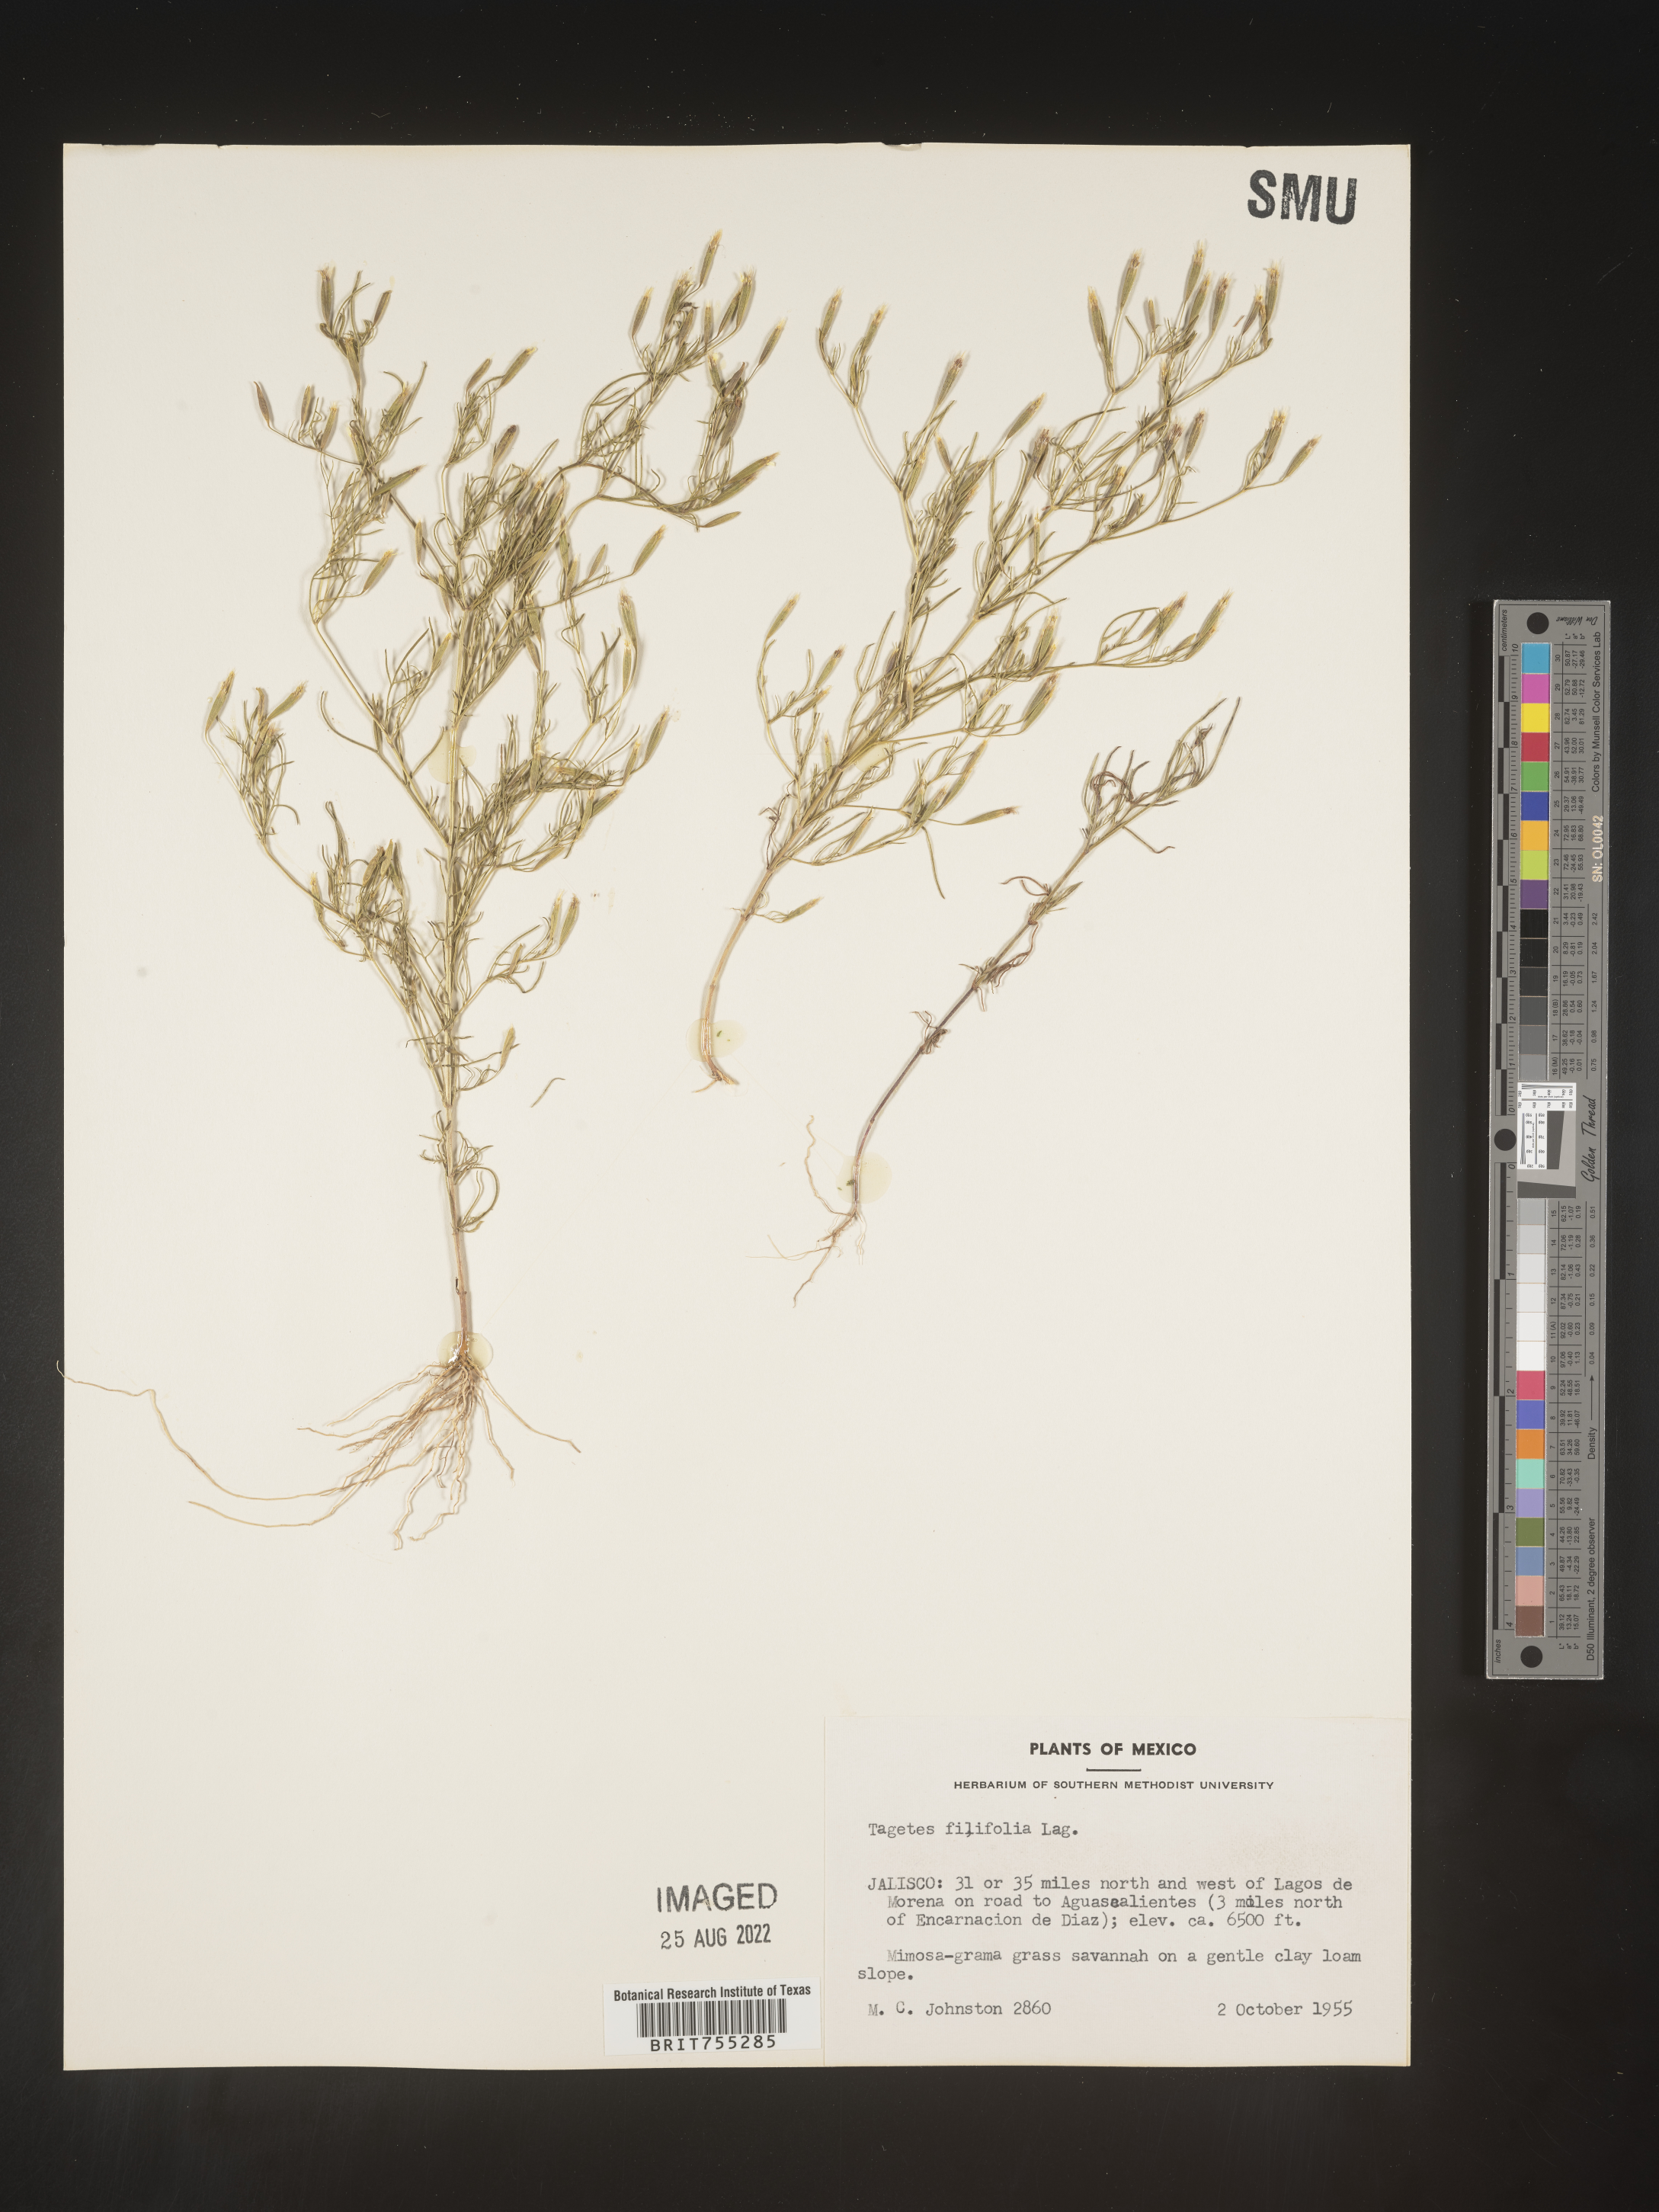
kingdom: Plantae
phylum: Tracheophyta
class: Magnoliopsida
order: Asterales
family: Asteraceae
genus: Tagetes
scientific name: Tagetes
